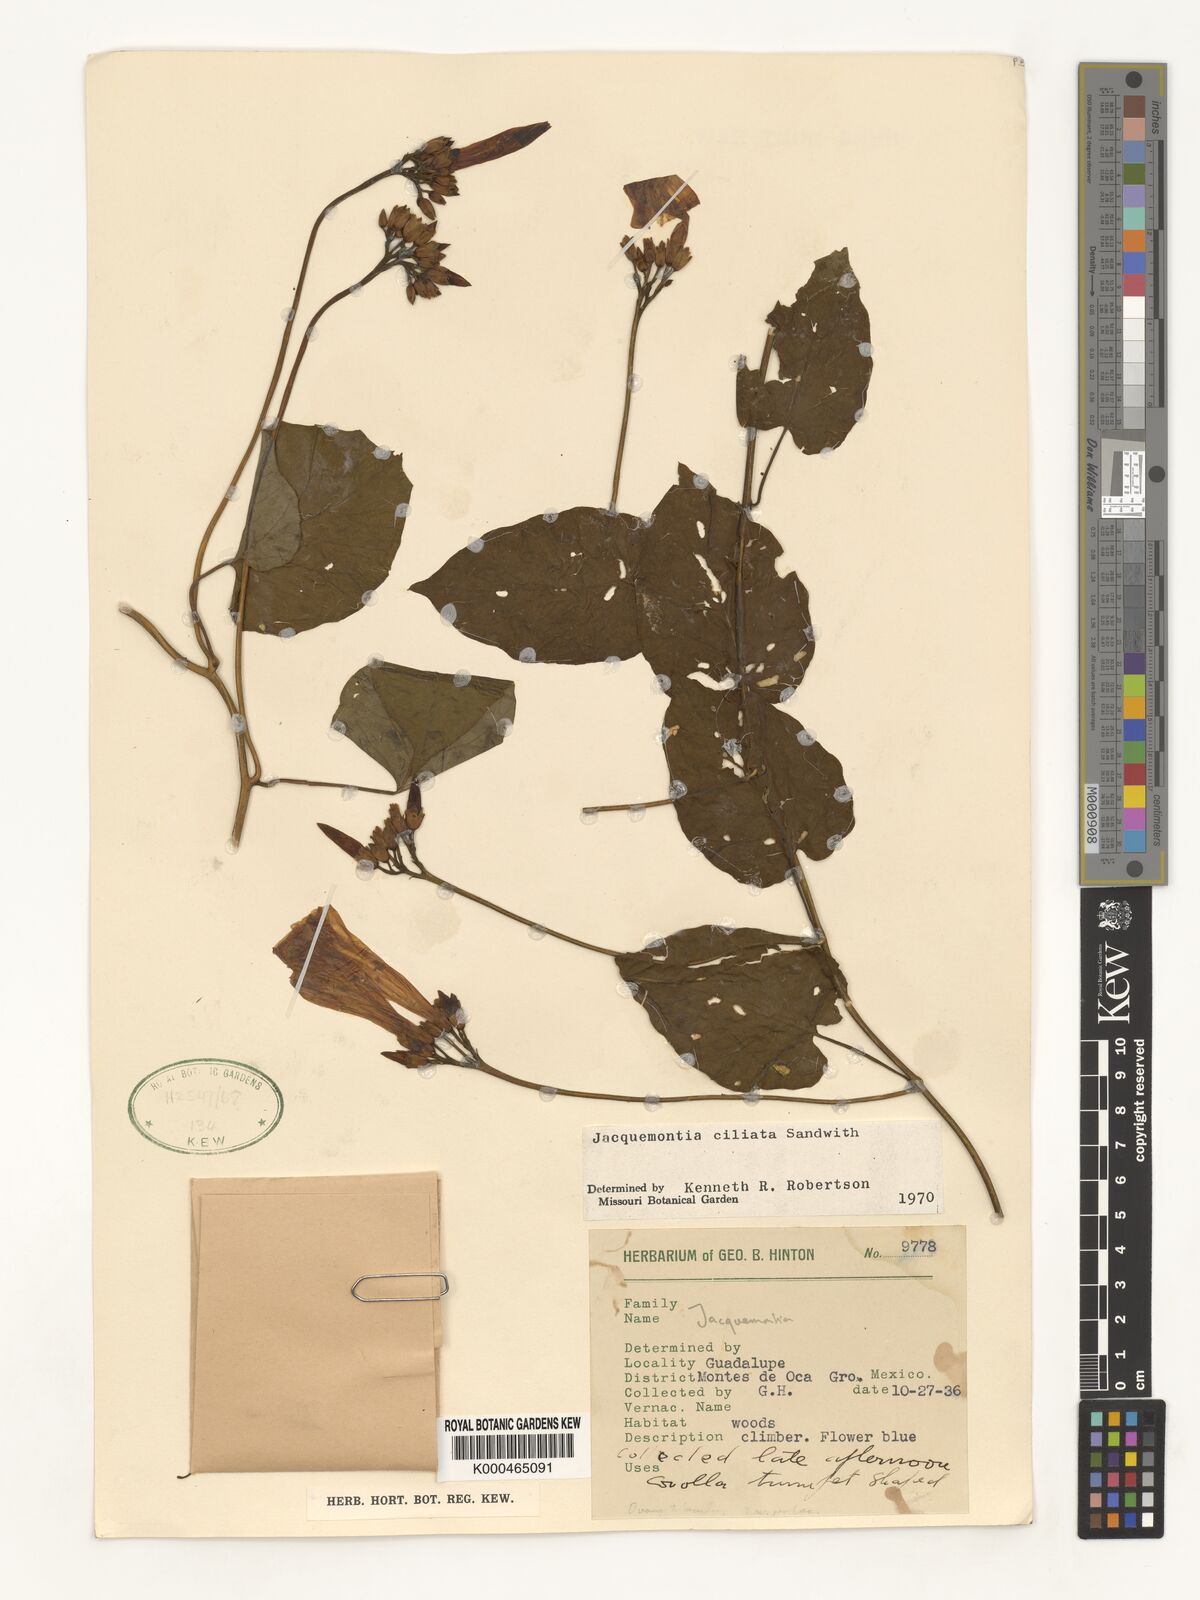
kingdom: Plantae
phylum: Tracheophyta
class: Magnoliopsida
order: Solanales
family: Convolvulaceae
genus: Jacquemontia
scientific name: Jacquemontia gabrielii
